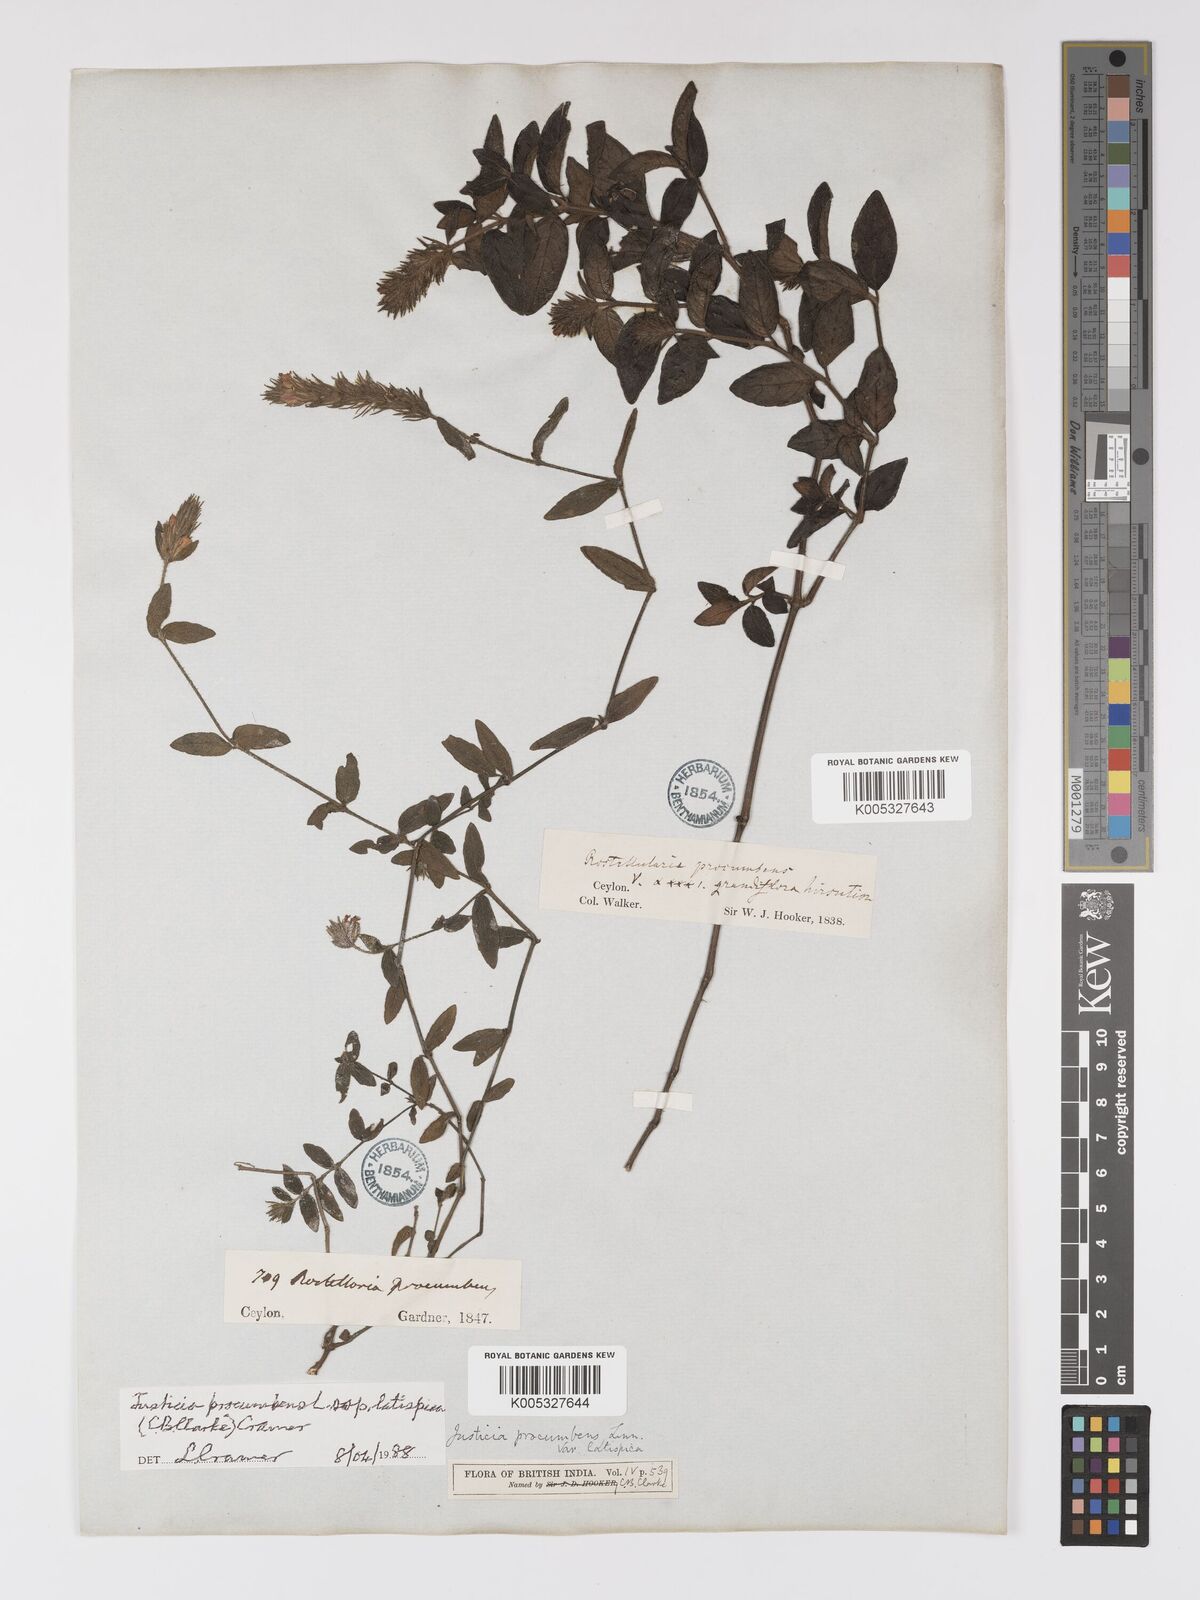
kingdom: Plantae
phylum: Tracheophyta
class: Magnoliopsida
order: Lamiales
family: Acanthaceae
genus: Rostellularia
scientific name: Rostellularia latispica
